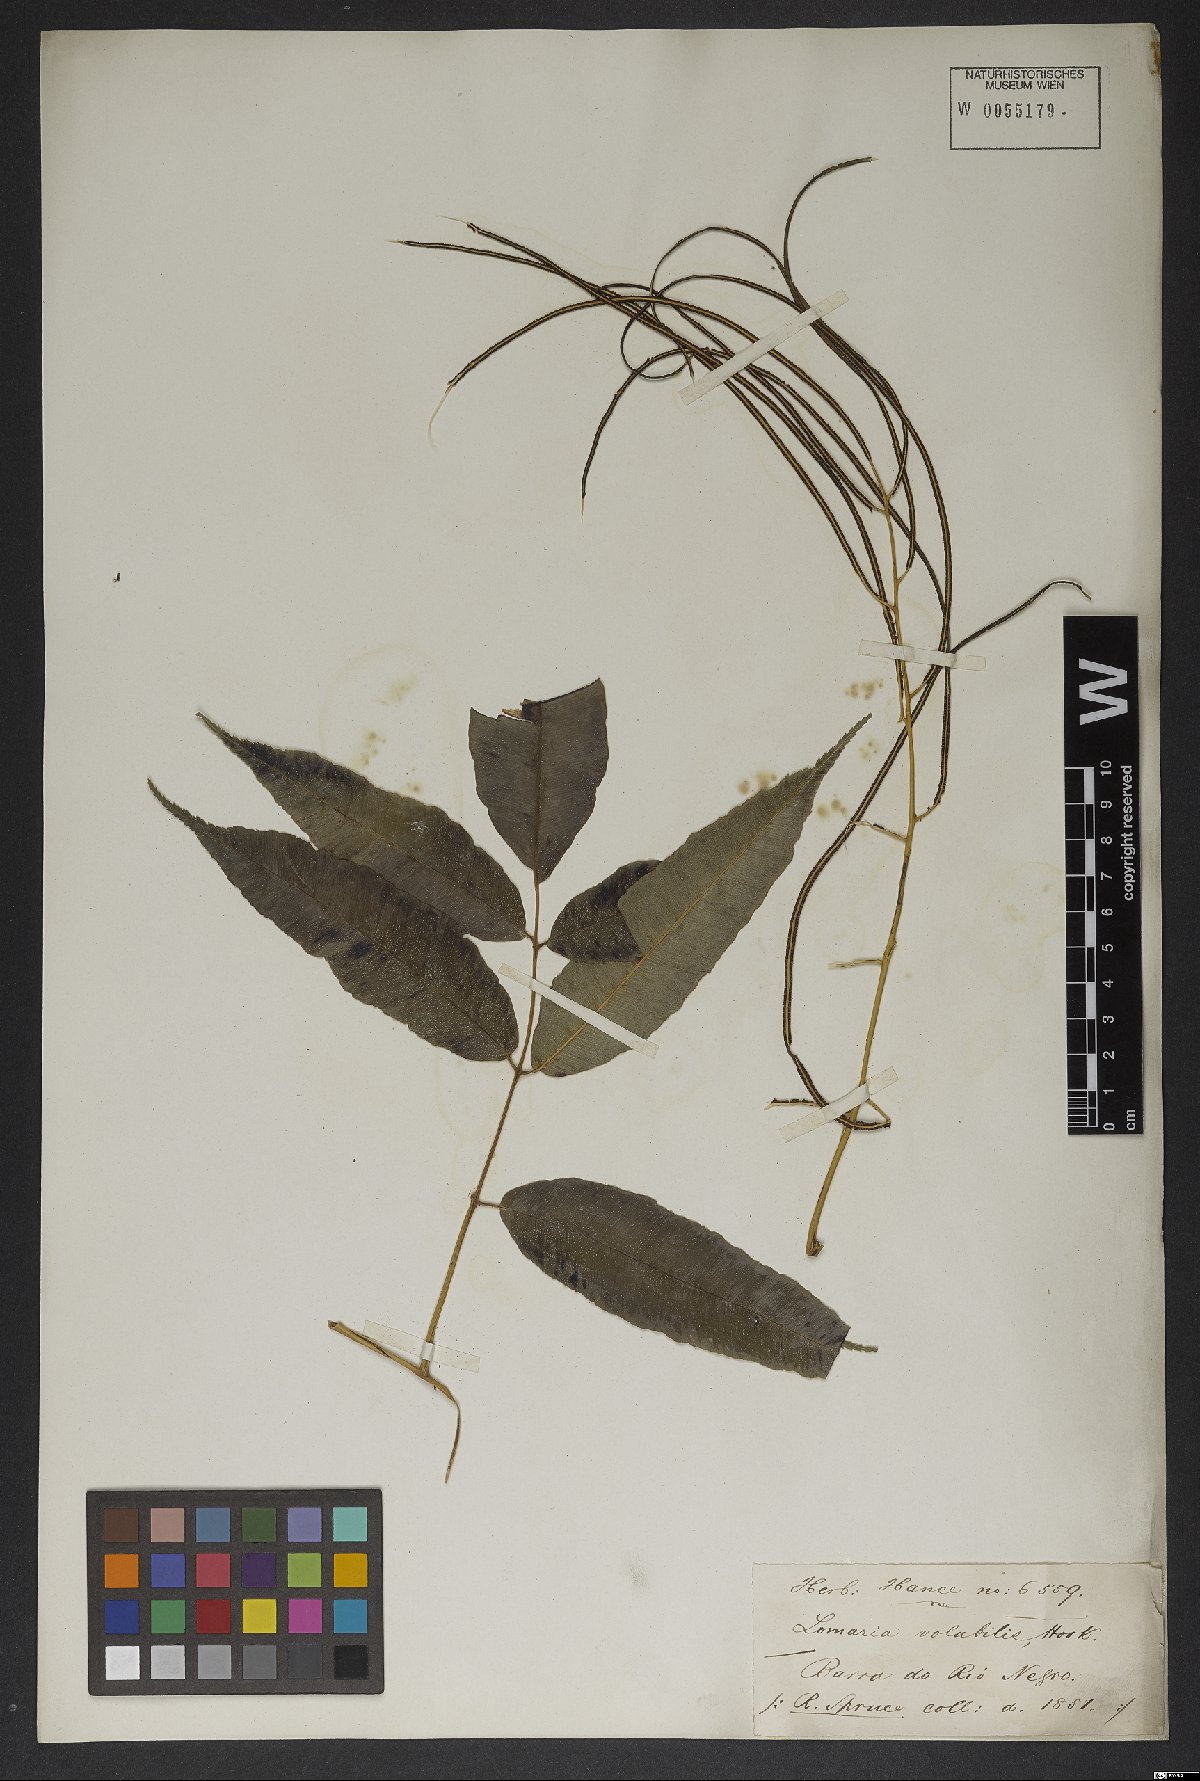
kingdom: Plantae
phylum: Tracheophyta
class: Polypodiopsida
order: Polypodiales
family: Blechnaceae
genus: Salpichlaena
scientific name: Salpichlaena volubilis
